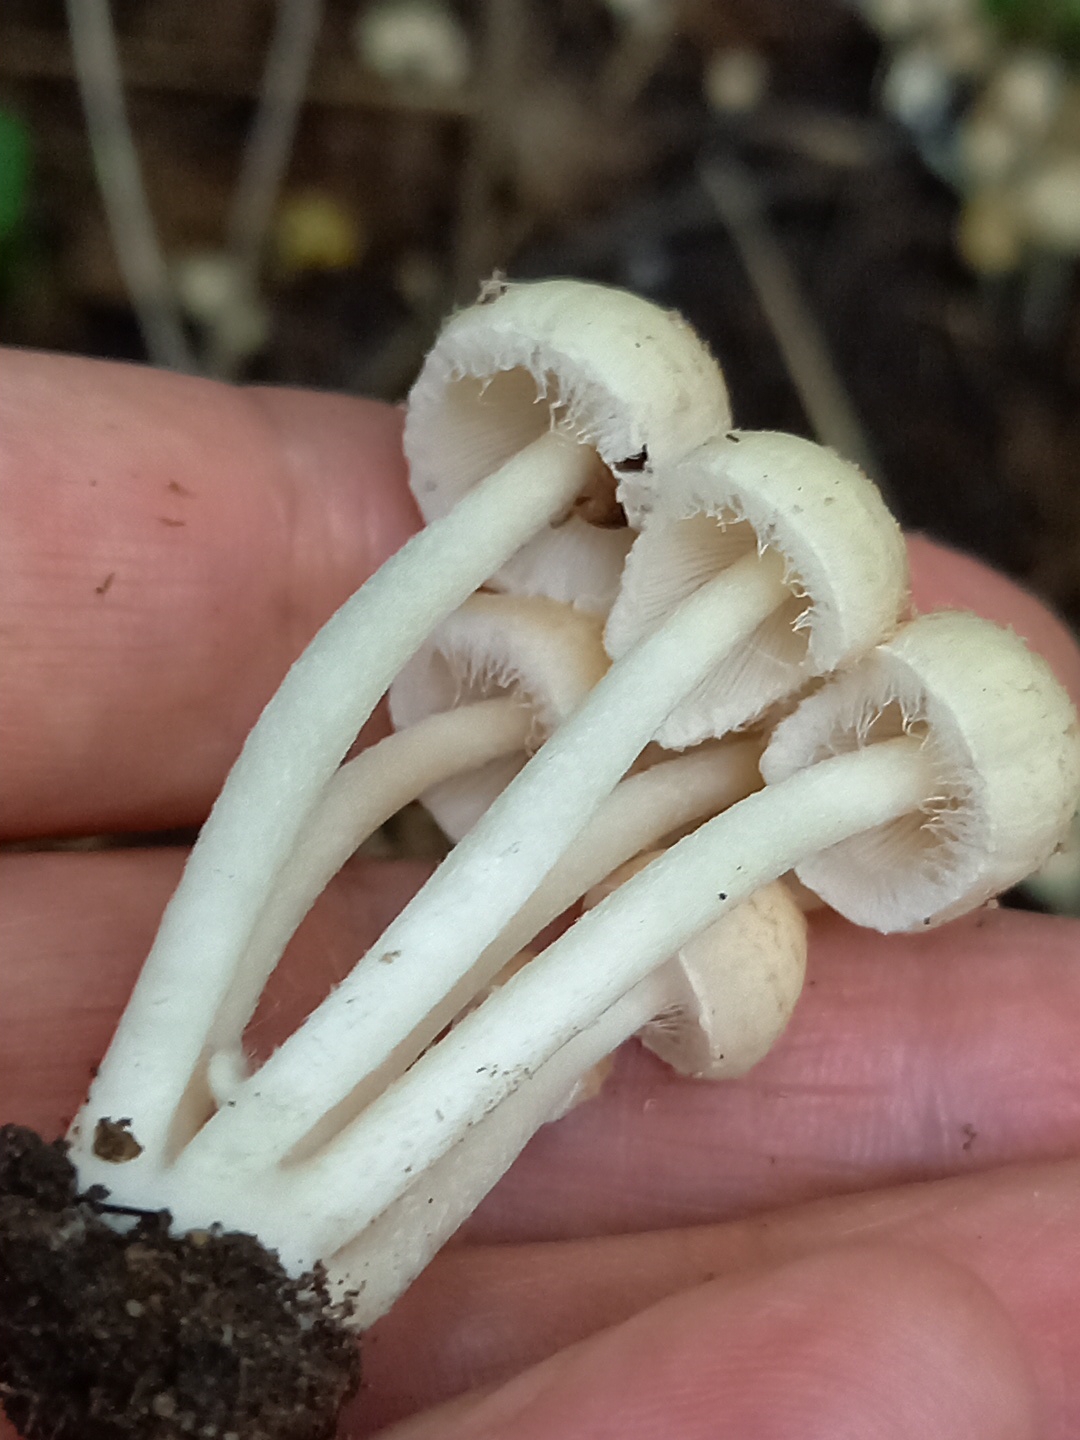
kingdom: Fungi
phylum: Basidiomycota
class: Agaricomycetes
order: Agaricales
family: Psathyrellaceae
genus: Candolleomyces
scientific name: Candolleomyces candolleanus
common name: Candolles mørkhat
